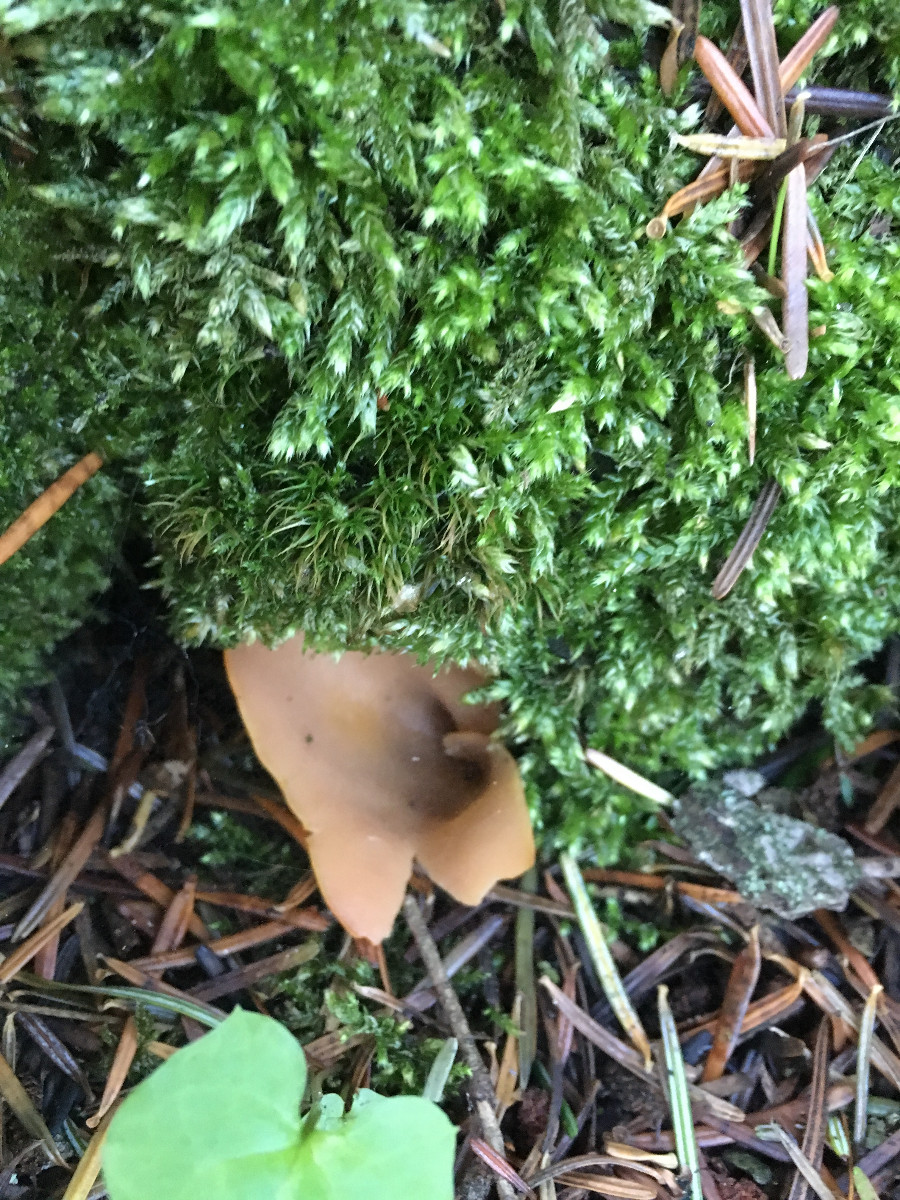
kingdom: Fungi
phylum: Ascomycota
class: Pezizomycetes
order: Pezizales
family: Otideaceae
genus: Otidea
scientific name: Otidea
